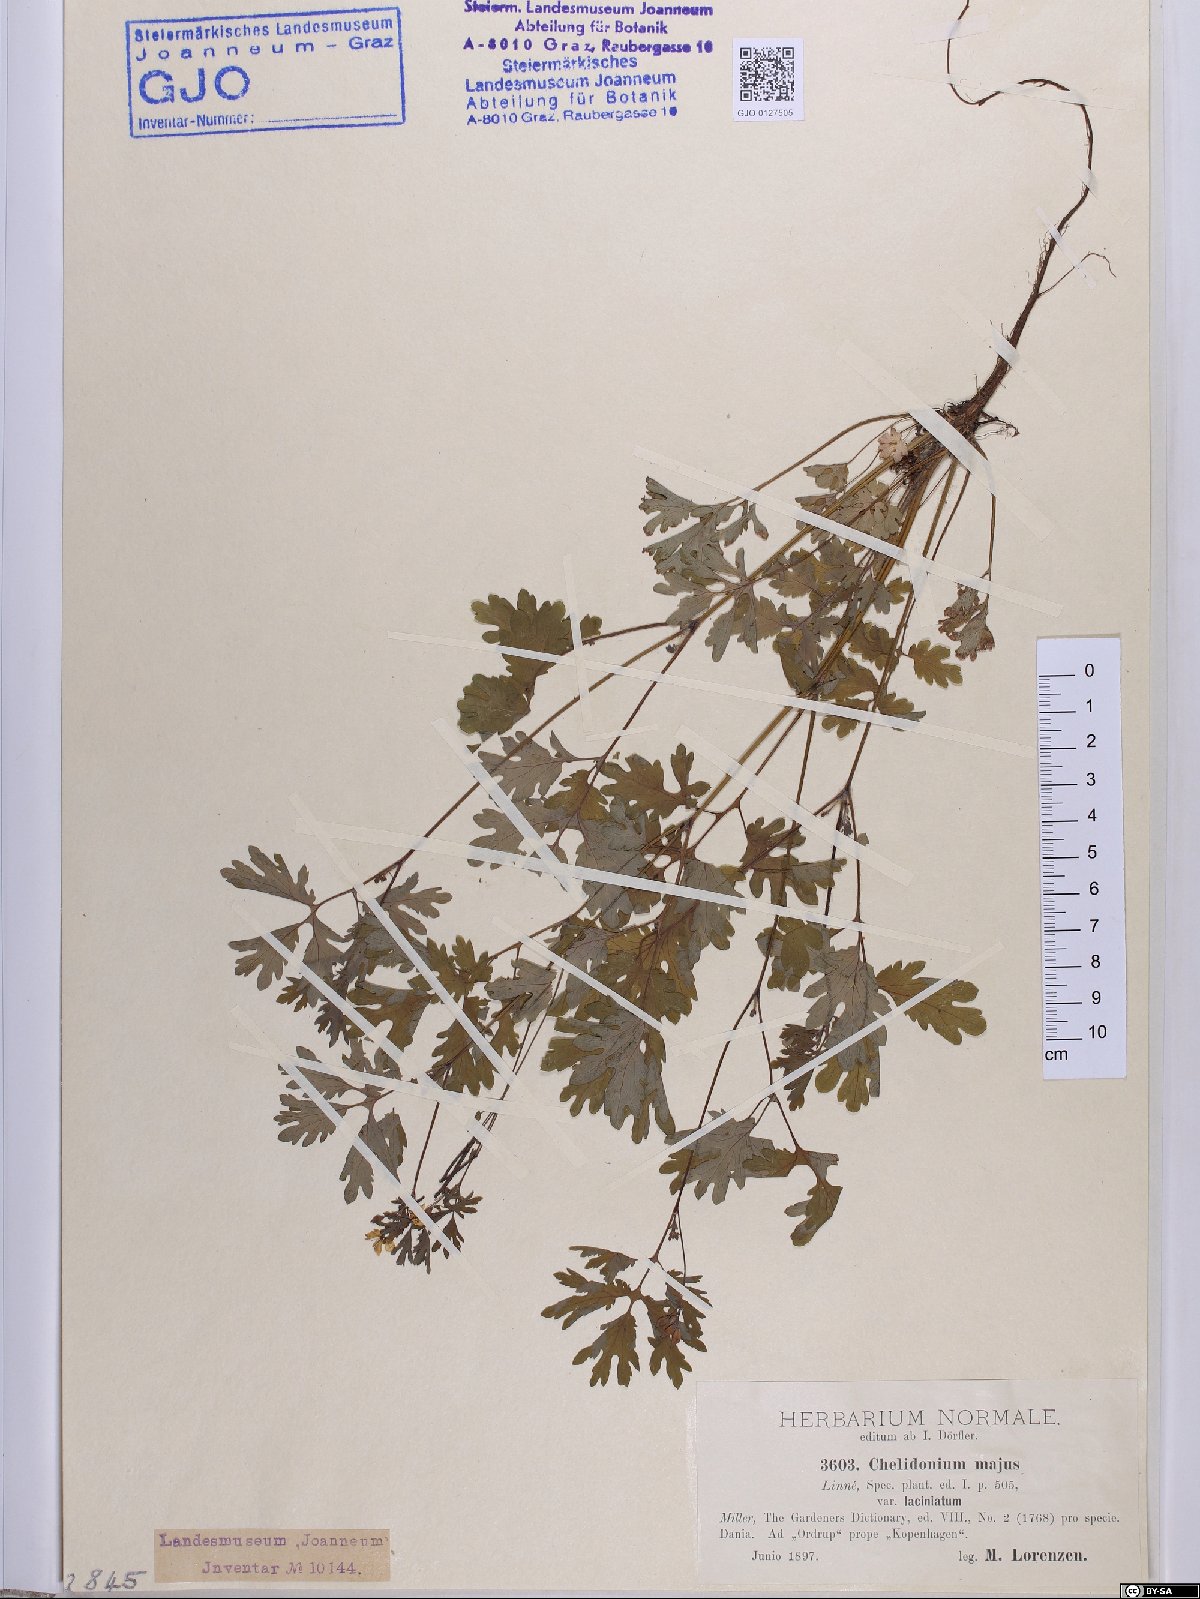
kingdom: Plantae
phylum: Tracheophyta
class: Magnoliopsida
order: Ranunculales
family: Papaveraceae
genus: Chelidonium
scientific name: Chelidonium majus
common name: Greater celandine
